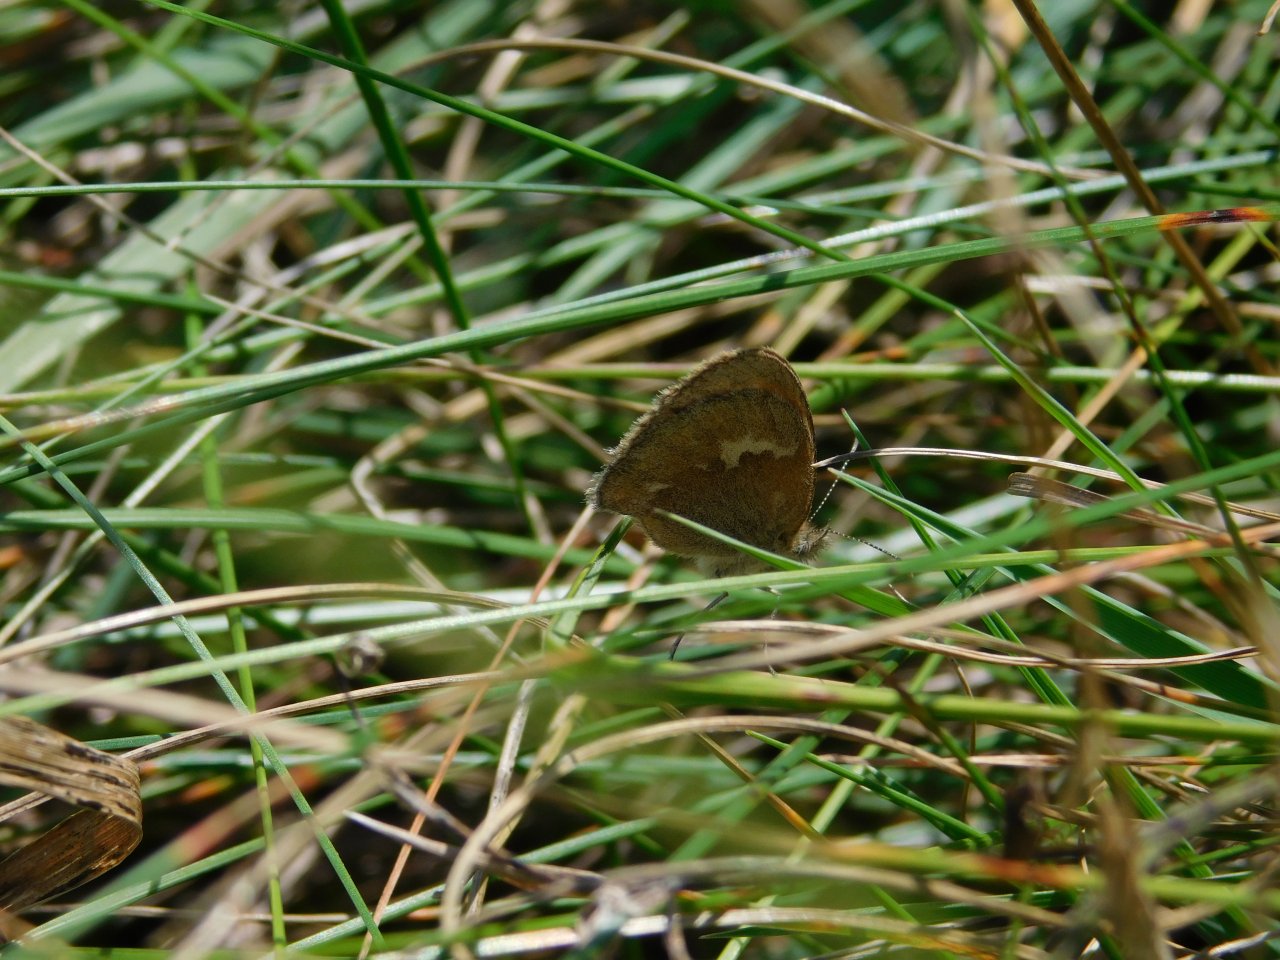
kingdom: Animalia
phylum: Arthropoda
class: Insecta
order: Lepidoptera
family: Nymphalidae
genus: Coenonympha
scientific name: Coenonympha tullia
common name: Large Heath
